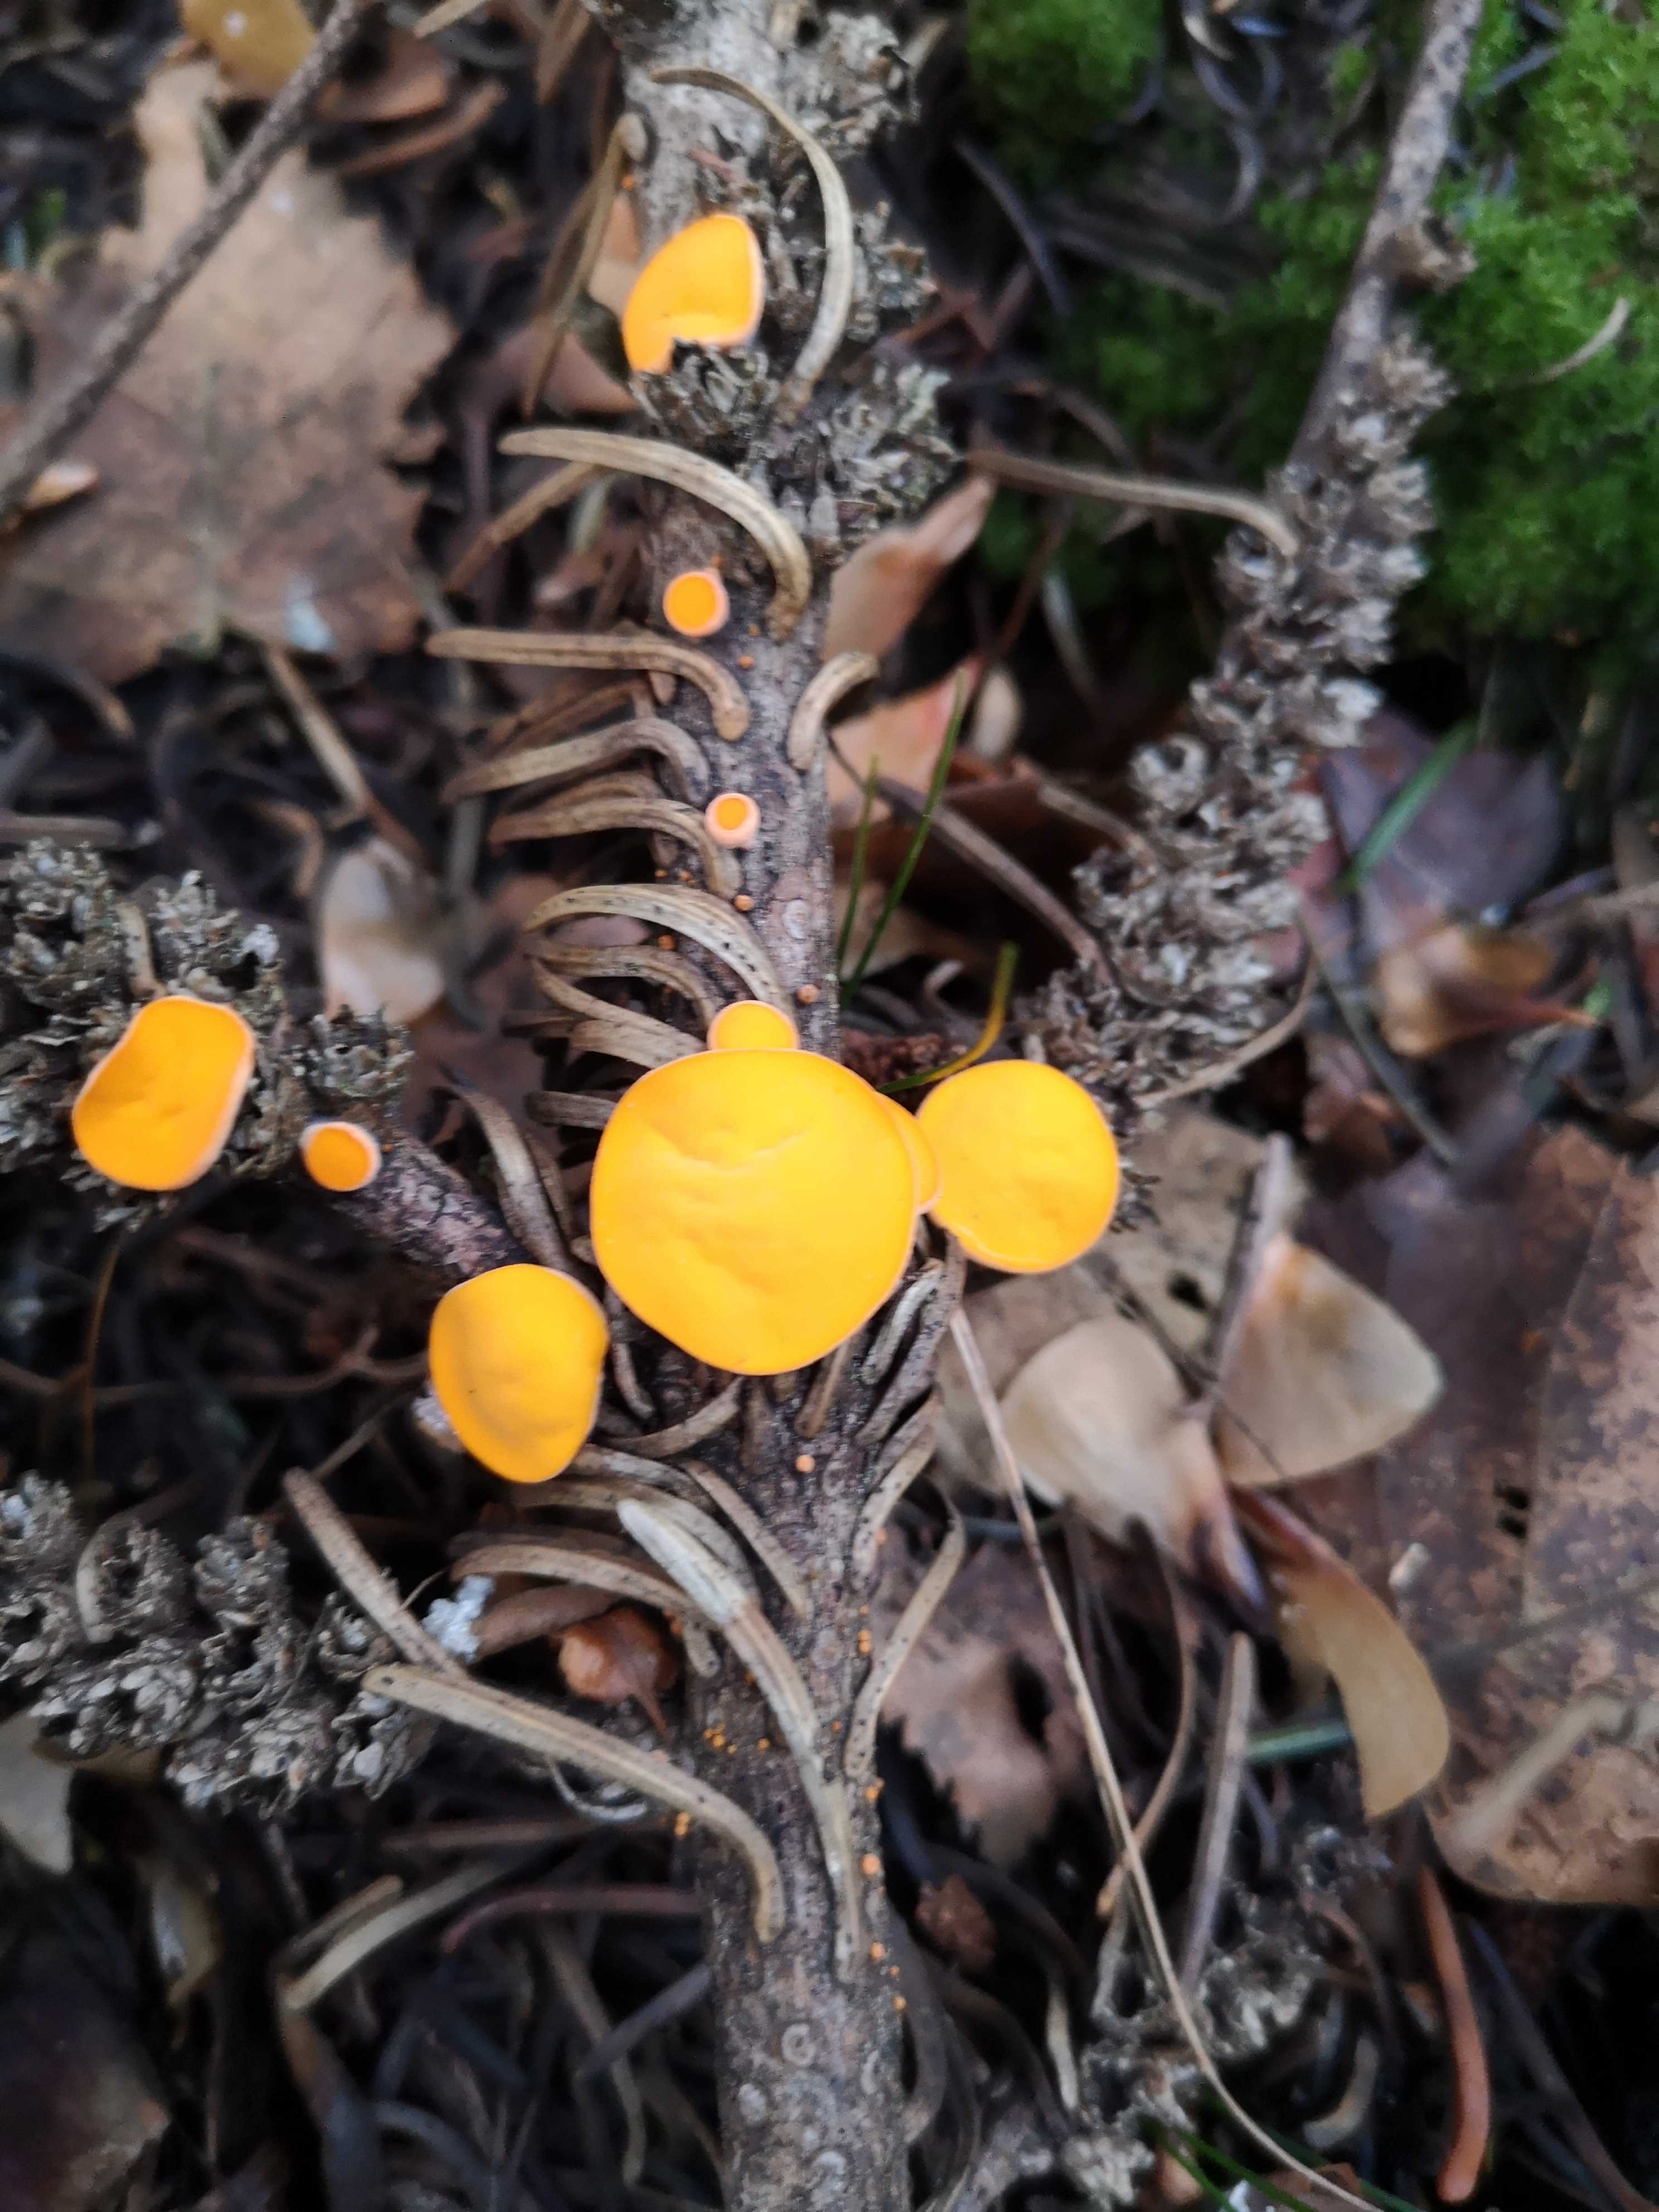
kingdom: Fungi
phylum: Ascomycota
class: Pezizomycetes
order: Pezizales
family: Sarcoscyphaceae
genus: Pithya
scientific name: Pithya vulgaris
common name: stor dukatbæger
